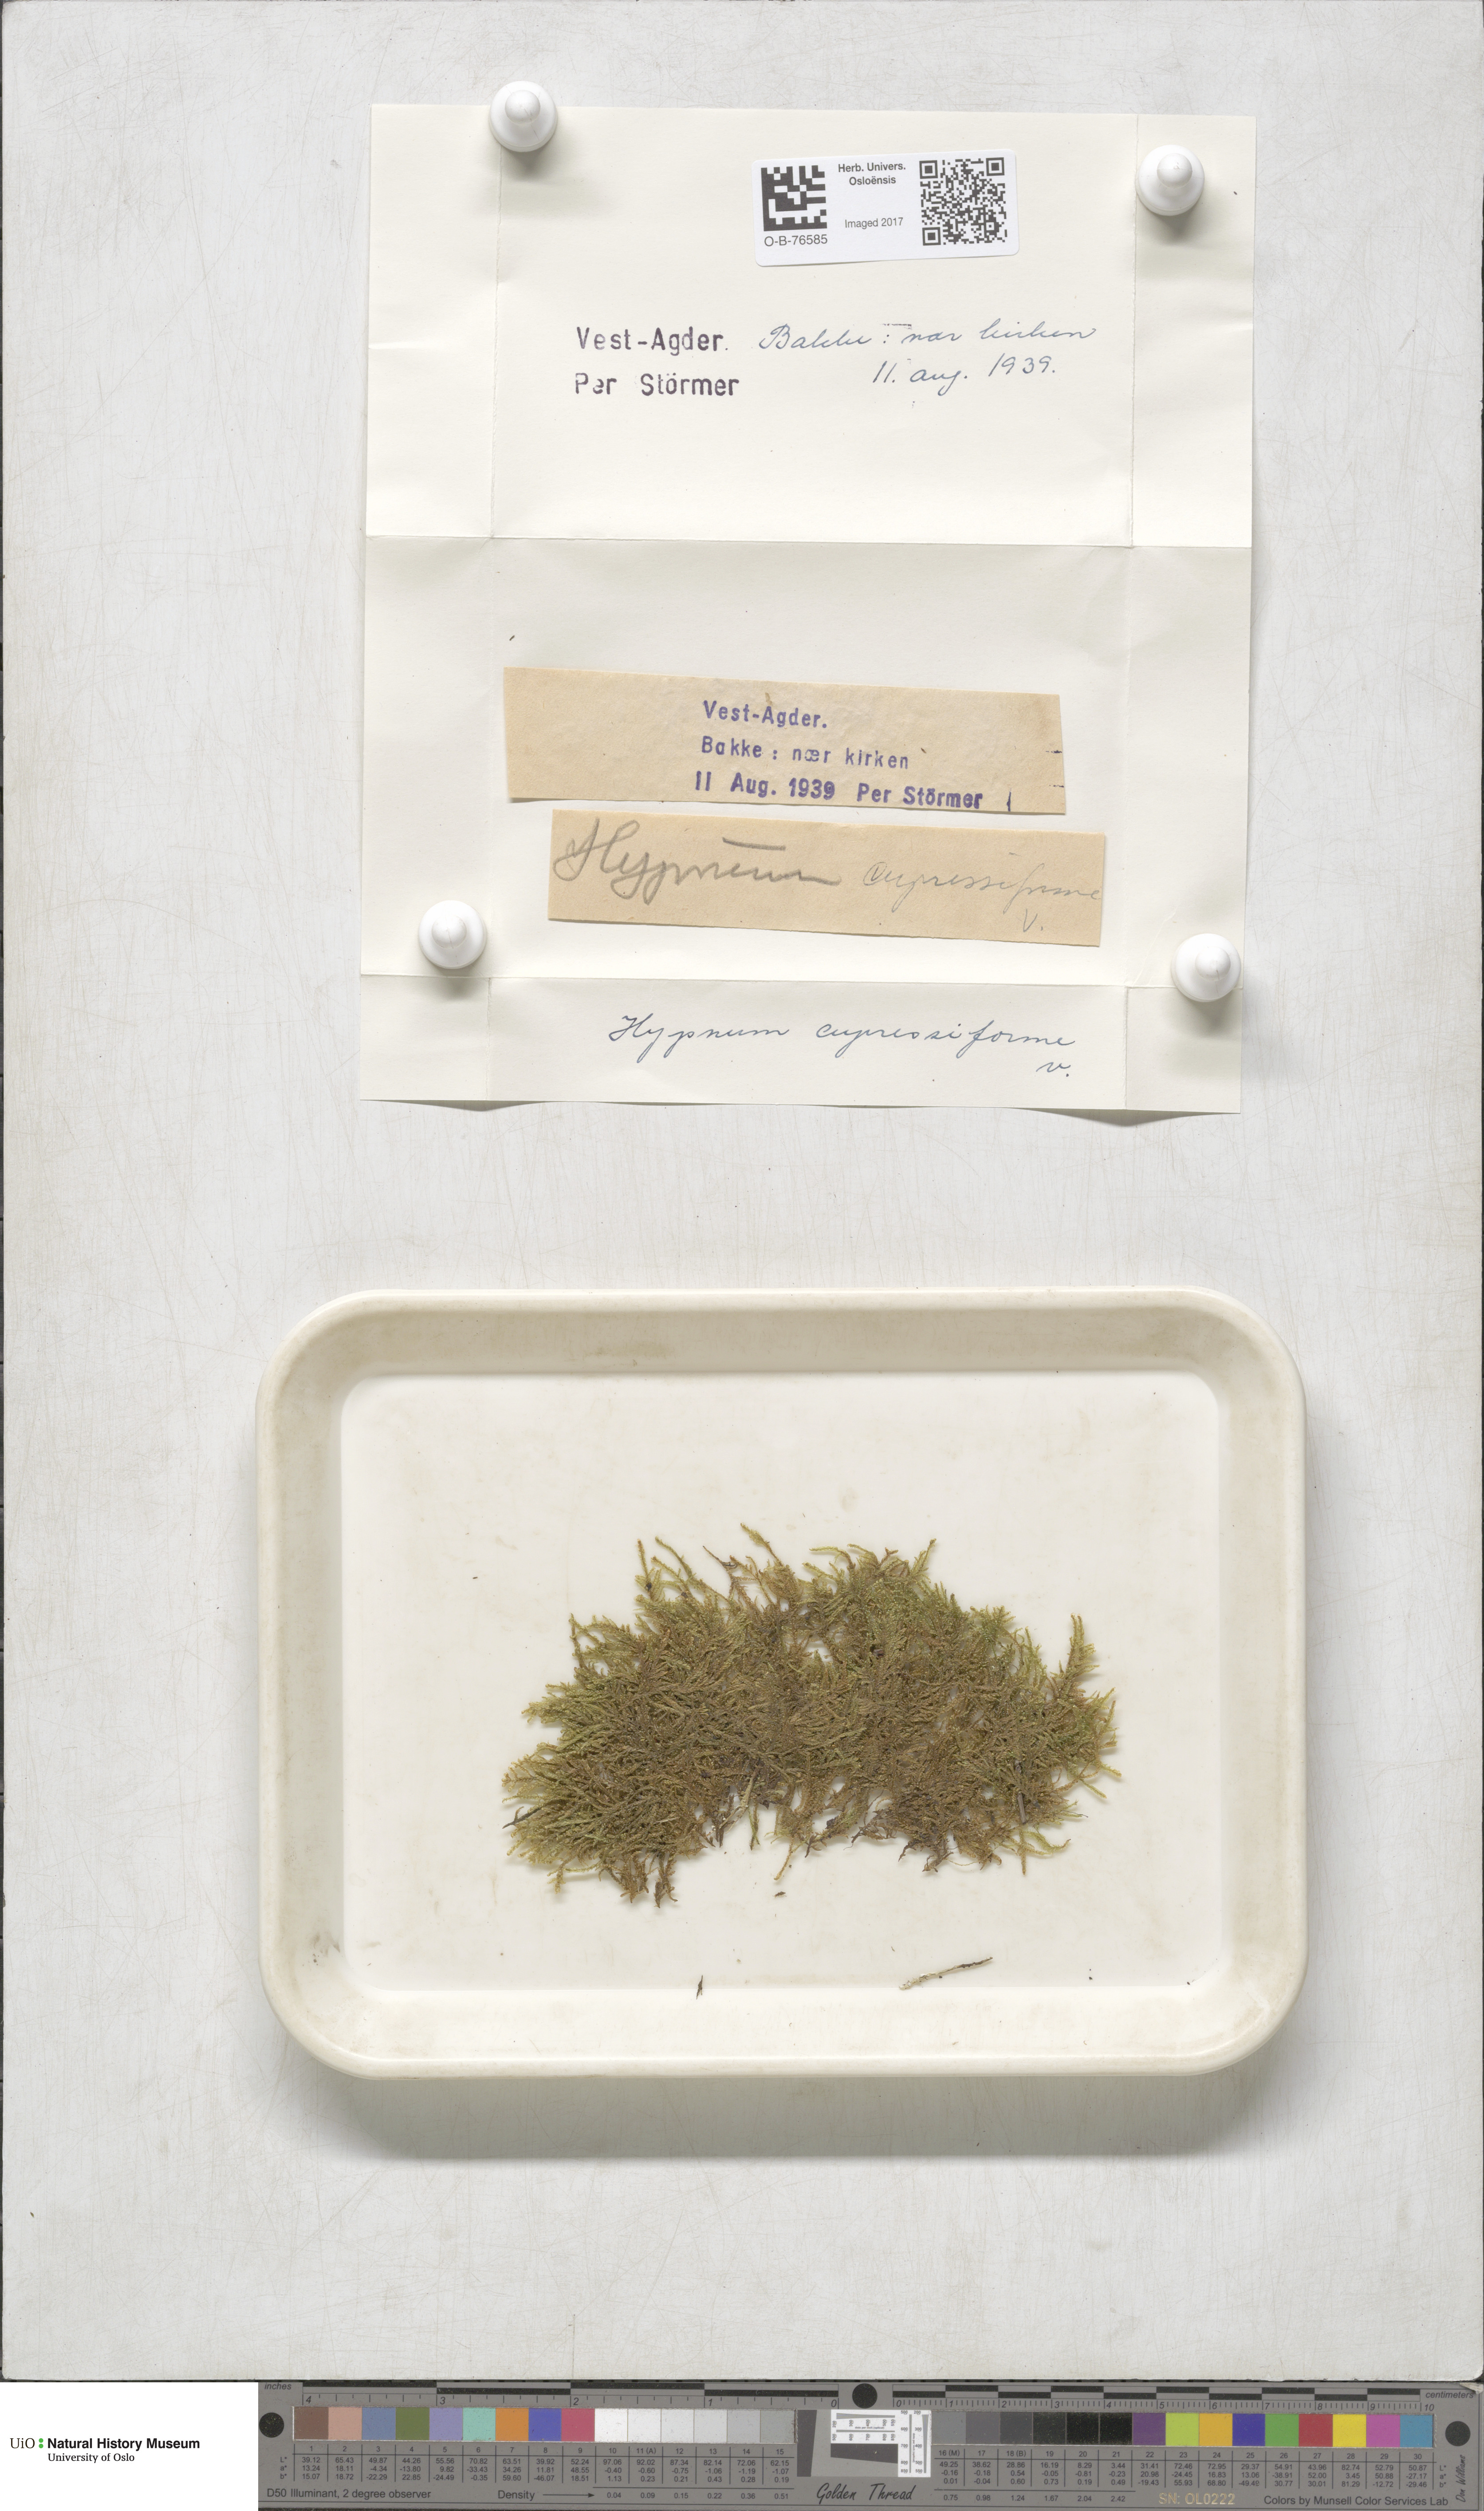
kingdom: Plantae
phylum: Bryophyta
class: Bryopsida
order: Hypnales
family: Hypnaceae
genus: Hypnum
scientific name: Hypnum cupressiforme
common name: Cypress-leaved plait-moss
